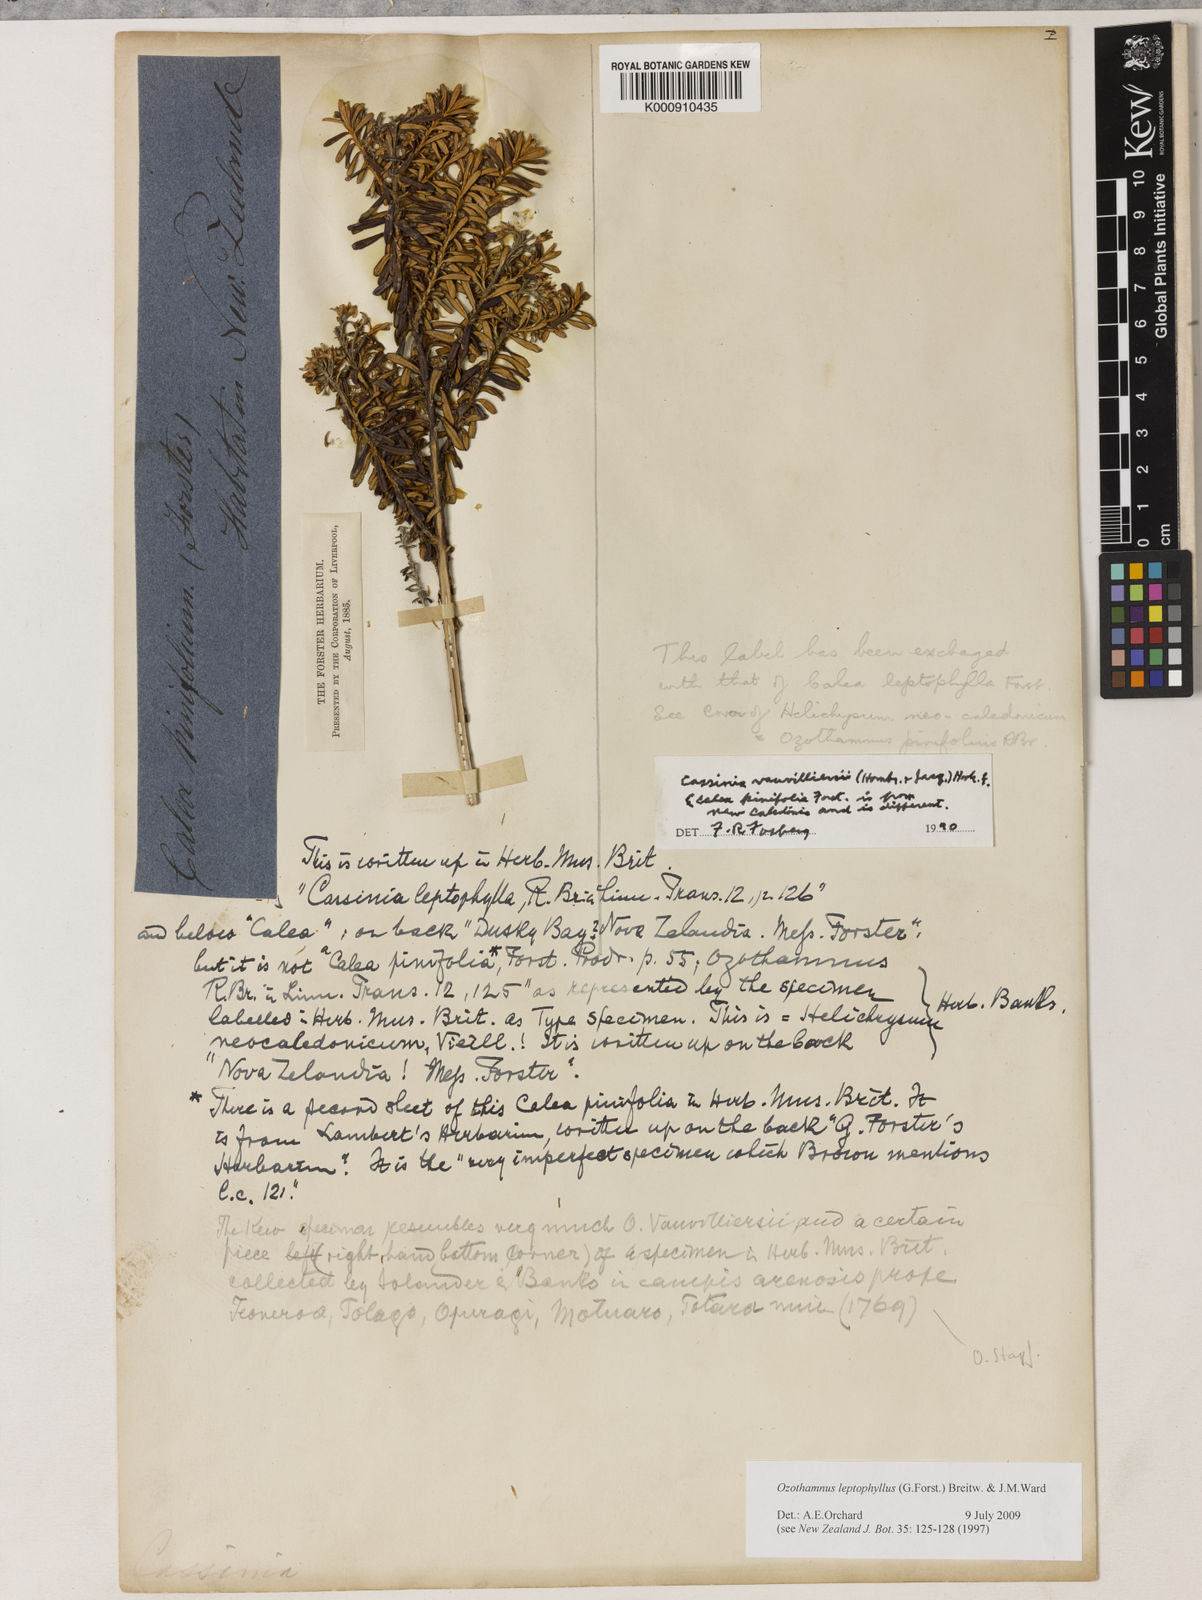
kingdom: Plantae
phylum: Tracheophyta
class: Magnoliopsida
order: Asterales
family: Asteraceae
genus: Ozothamnus
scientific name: Ozothamnus leptophyllus
